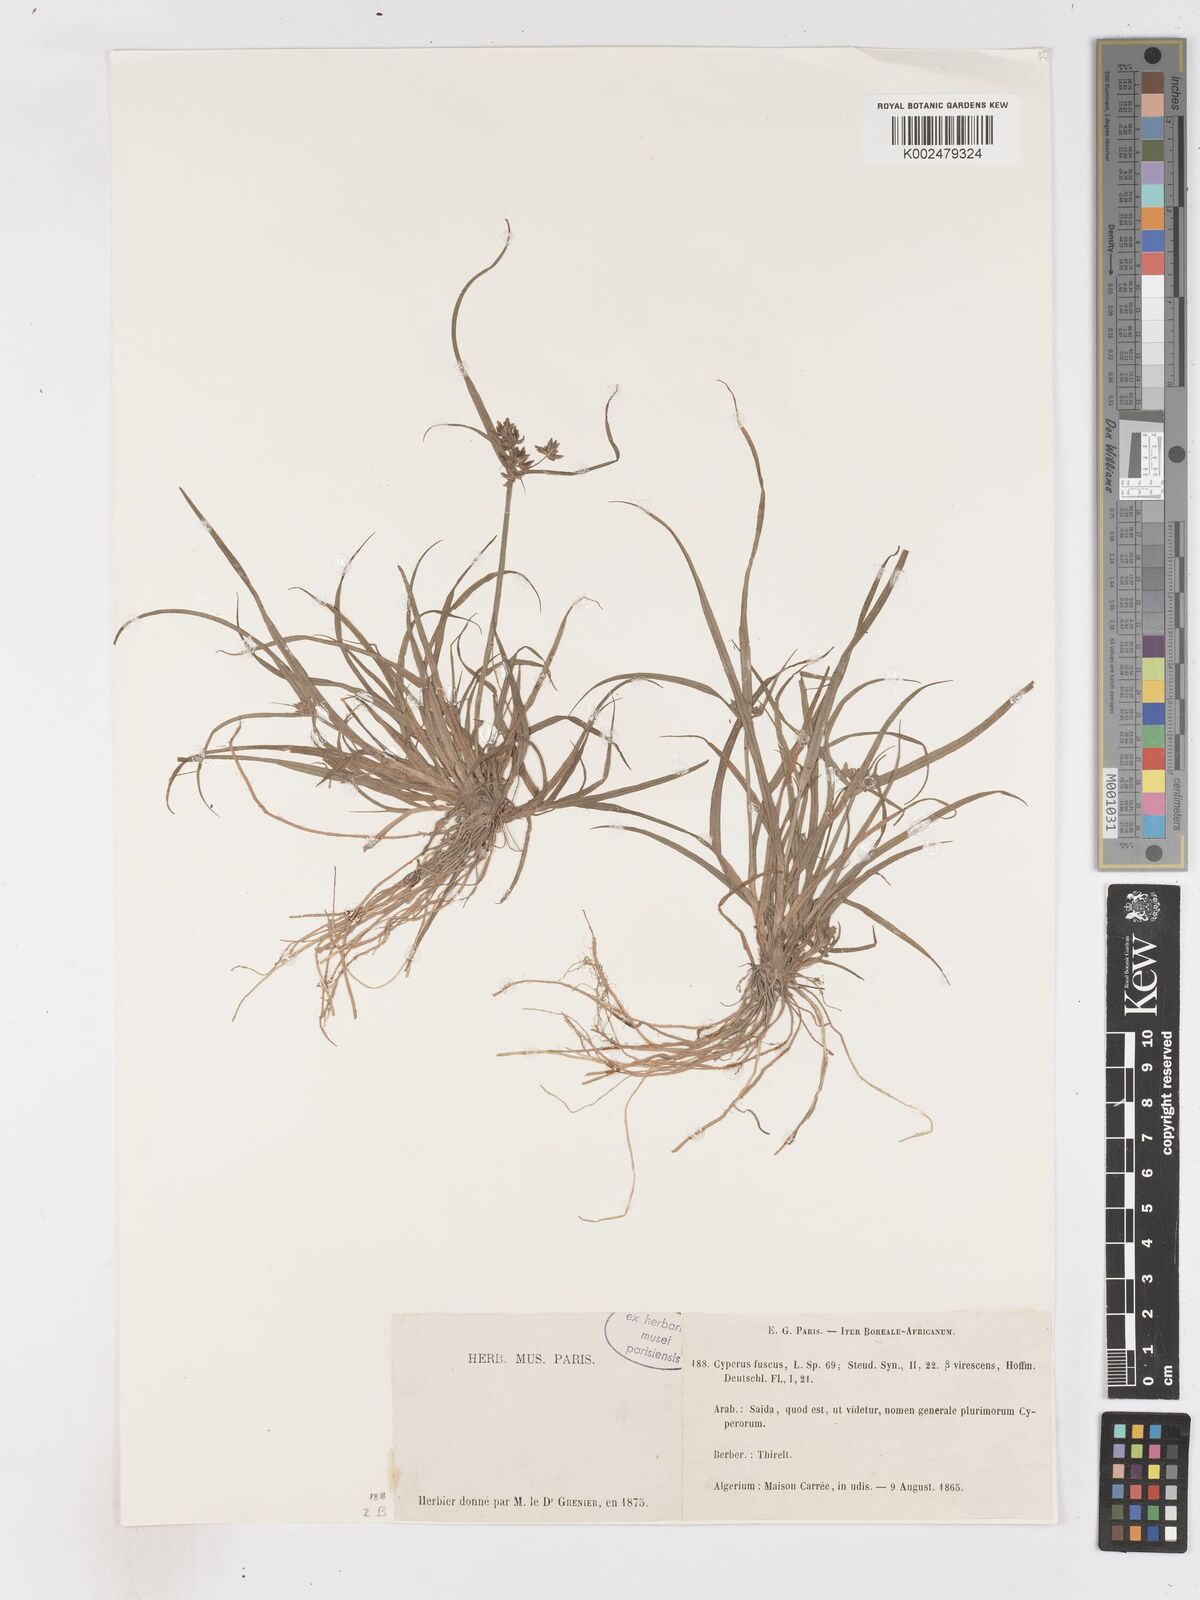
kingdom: Plantae
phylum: Tracheophyta
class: Liliopsida
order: Poales
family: Cyperaceae
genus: Cyperus
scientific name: Cyperus fuscus
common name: Brown galingale
